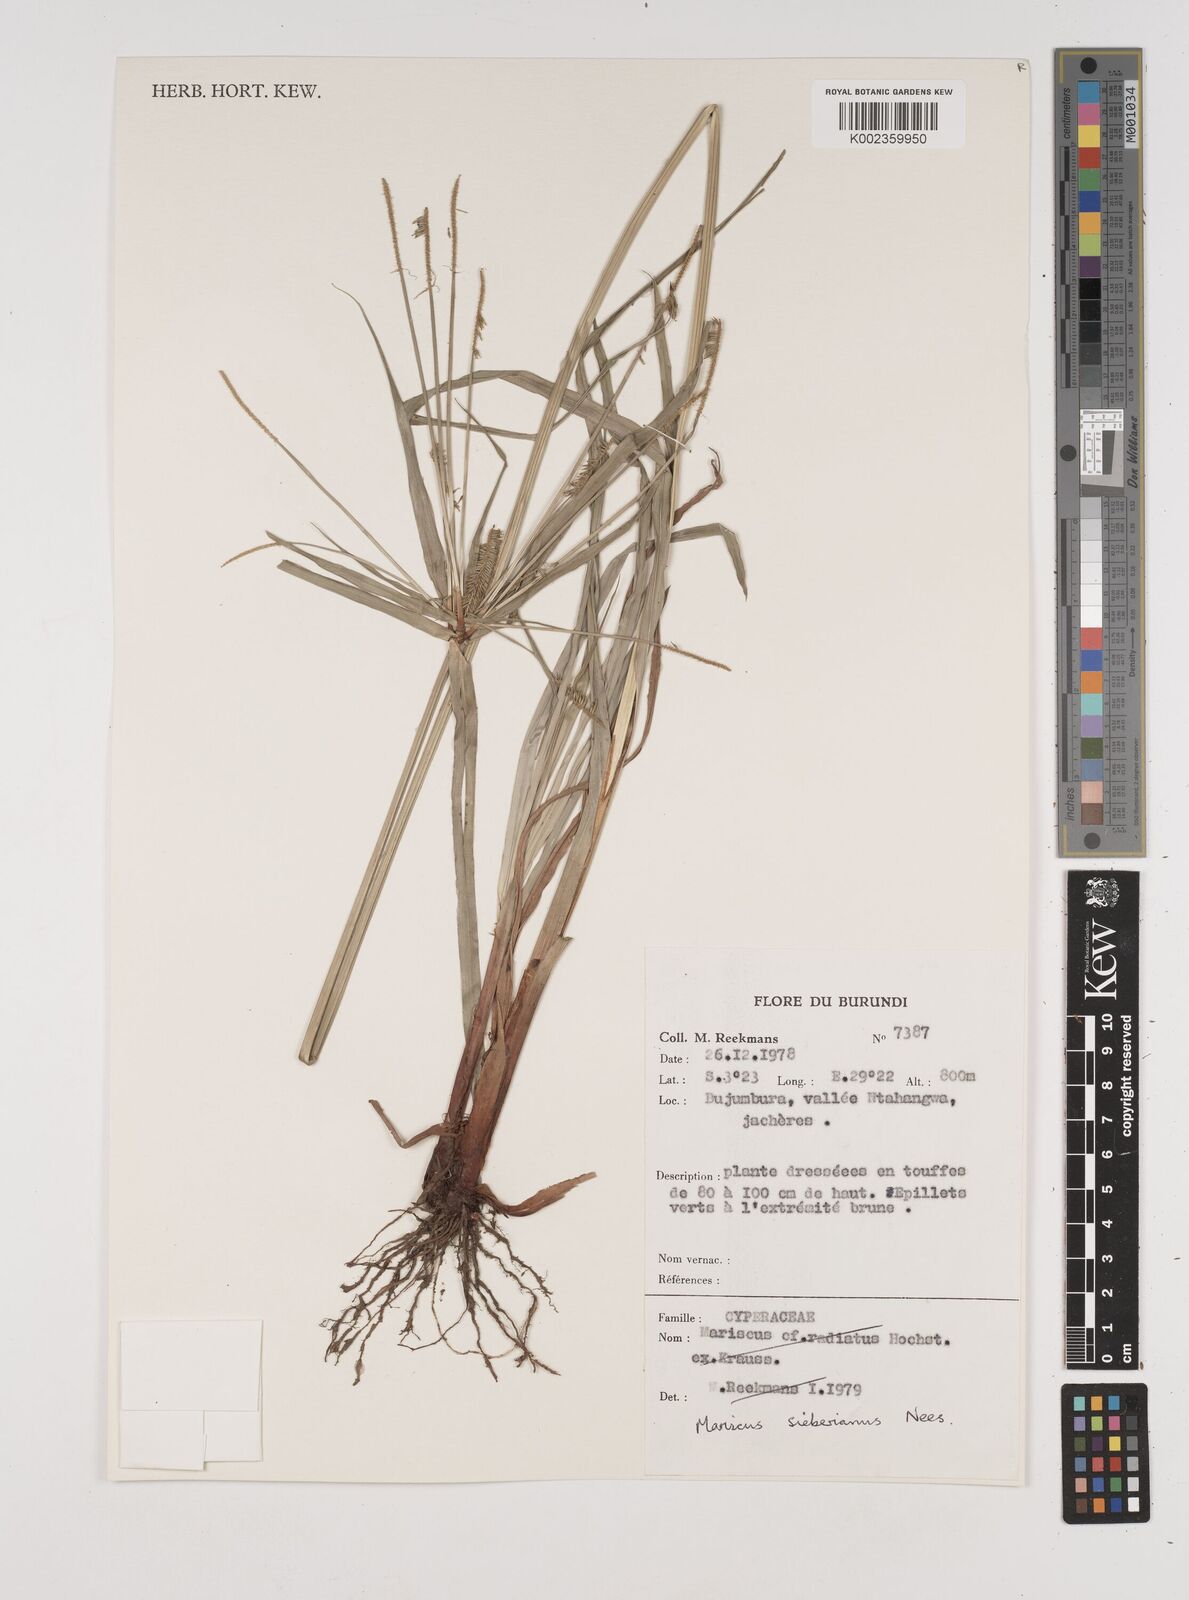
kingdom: Plantae
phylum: Tracheophyta
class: Liliopsida
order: Poales
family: Cyperaceae
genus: Cyperus
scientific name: Cyperus cyperoides
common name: Pacific island flat sedge
